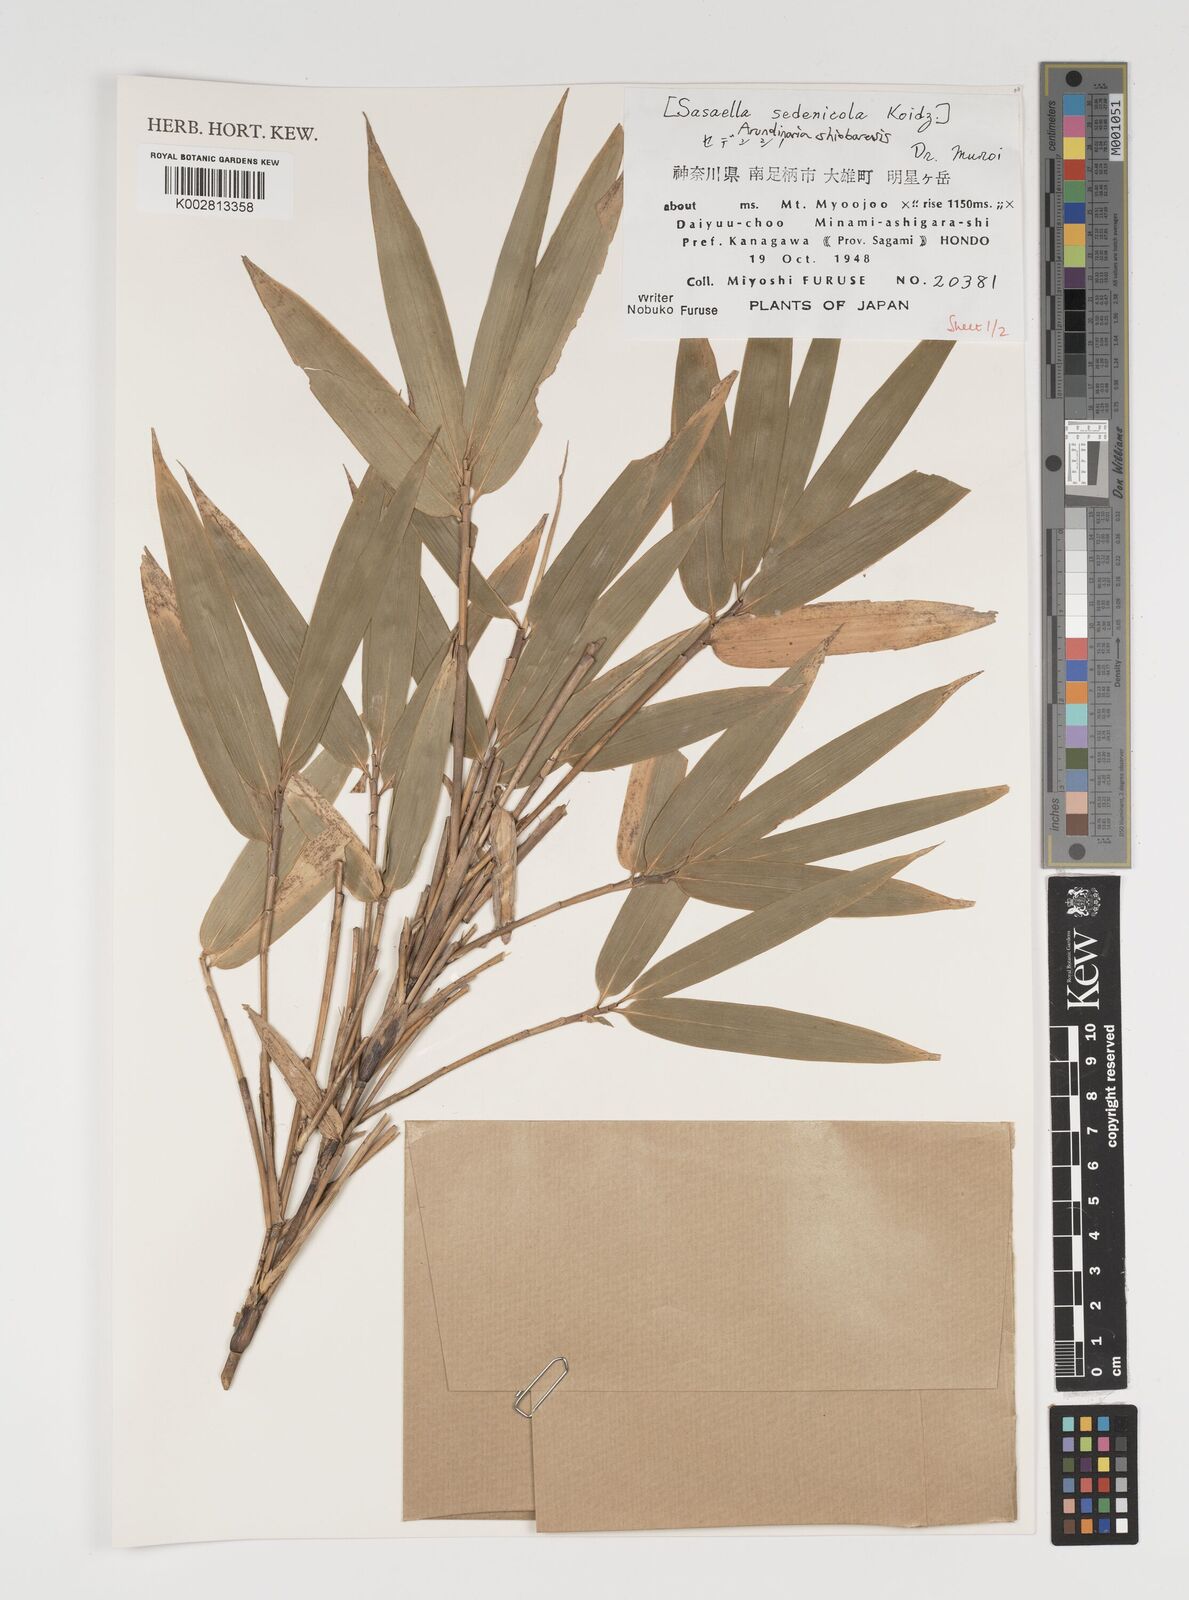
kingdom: Plantae
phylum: Tracheophyta
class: Liliopsida
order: Poales
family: Poaceae
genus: Sasa
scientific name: Sasa palmata
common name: Broad-leaved bamboo
